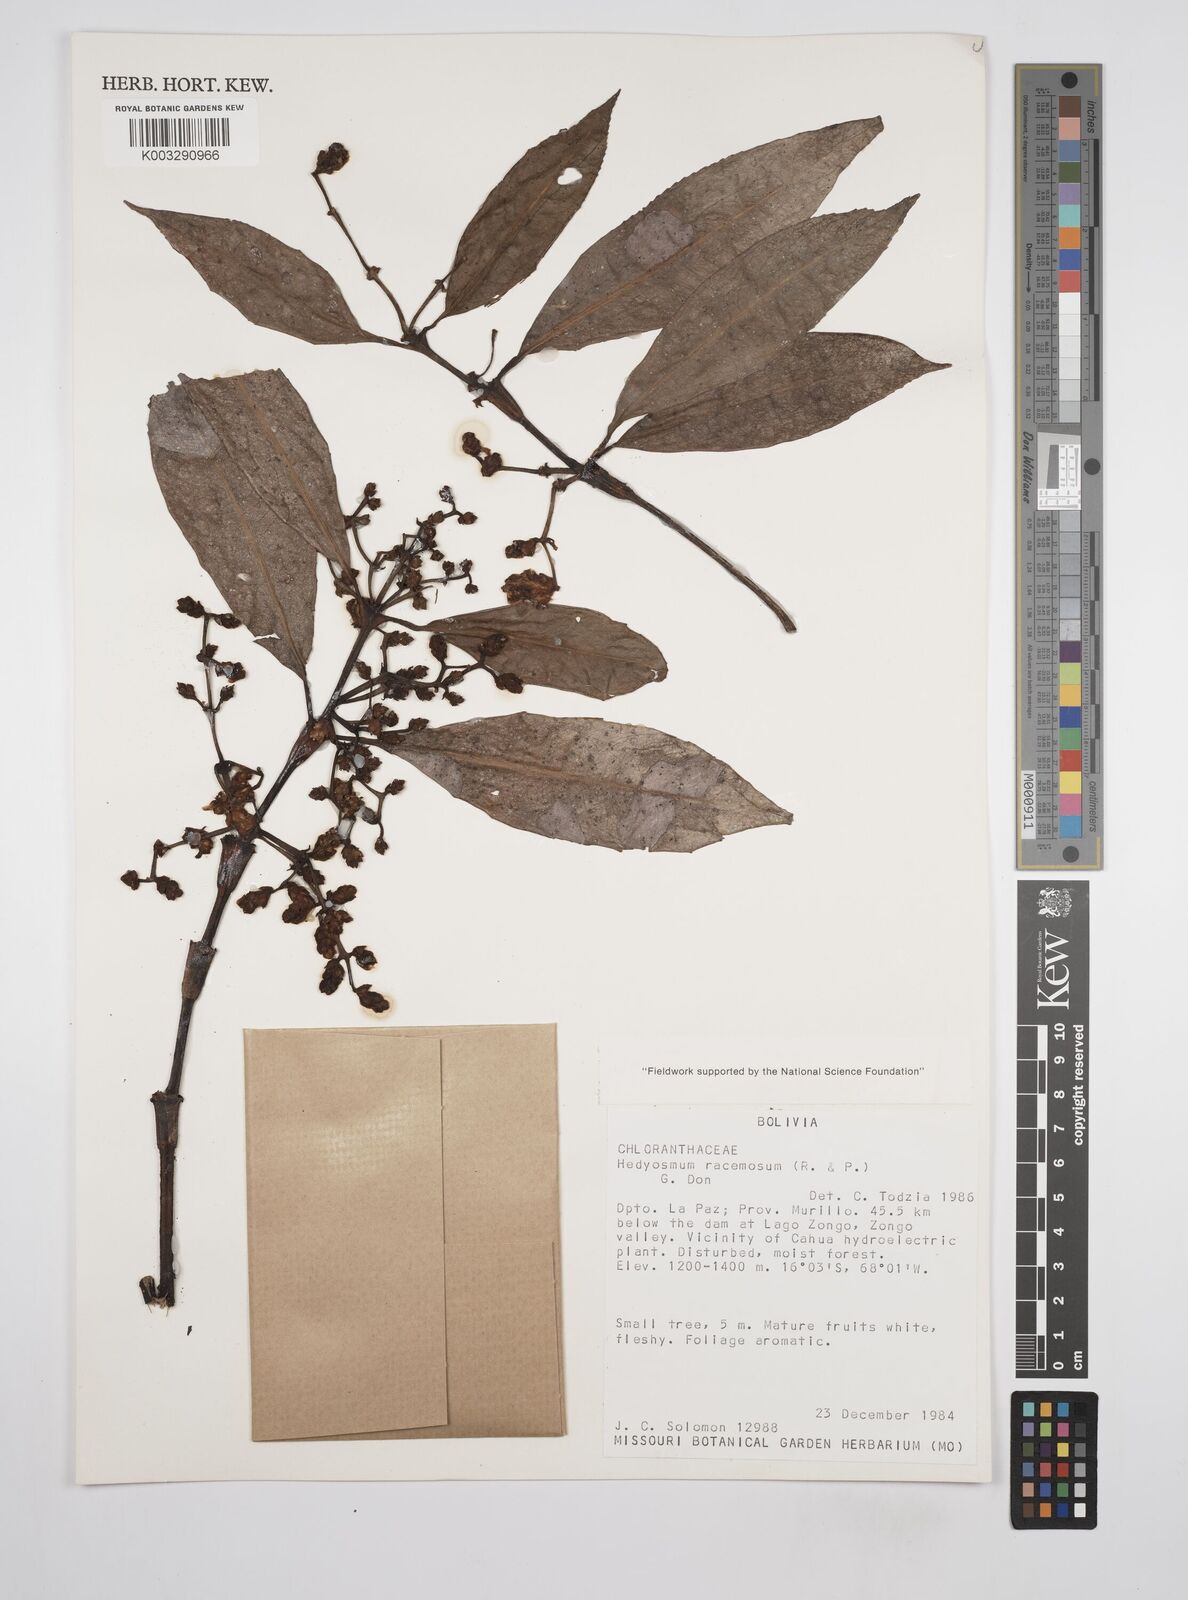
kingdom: Plantae
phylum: Tracheophyta
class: Magnoliopsida
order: Chloranthales
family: Chloranthaceae
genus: Hedyosmum
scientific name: Hedyosmum racemosum
